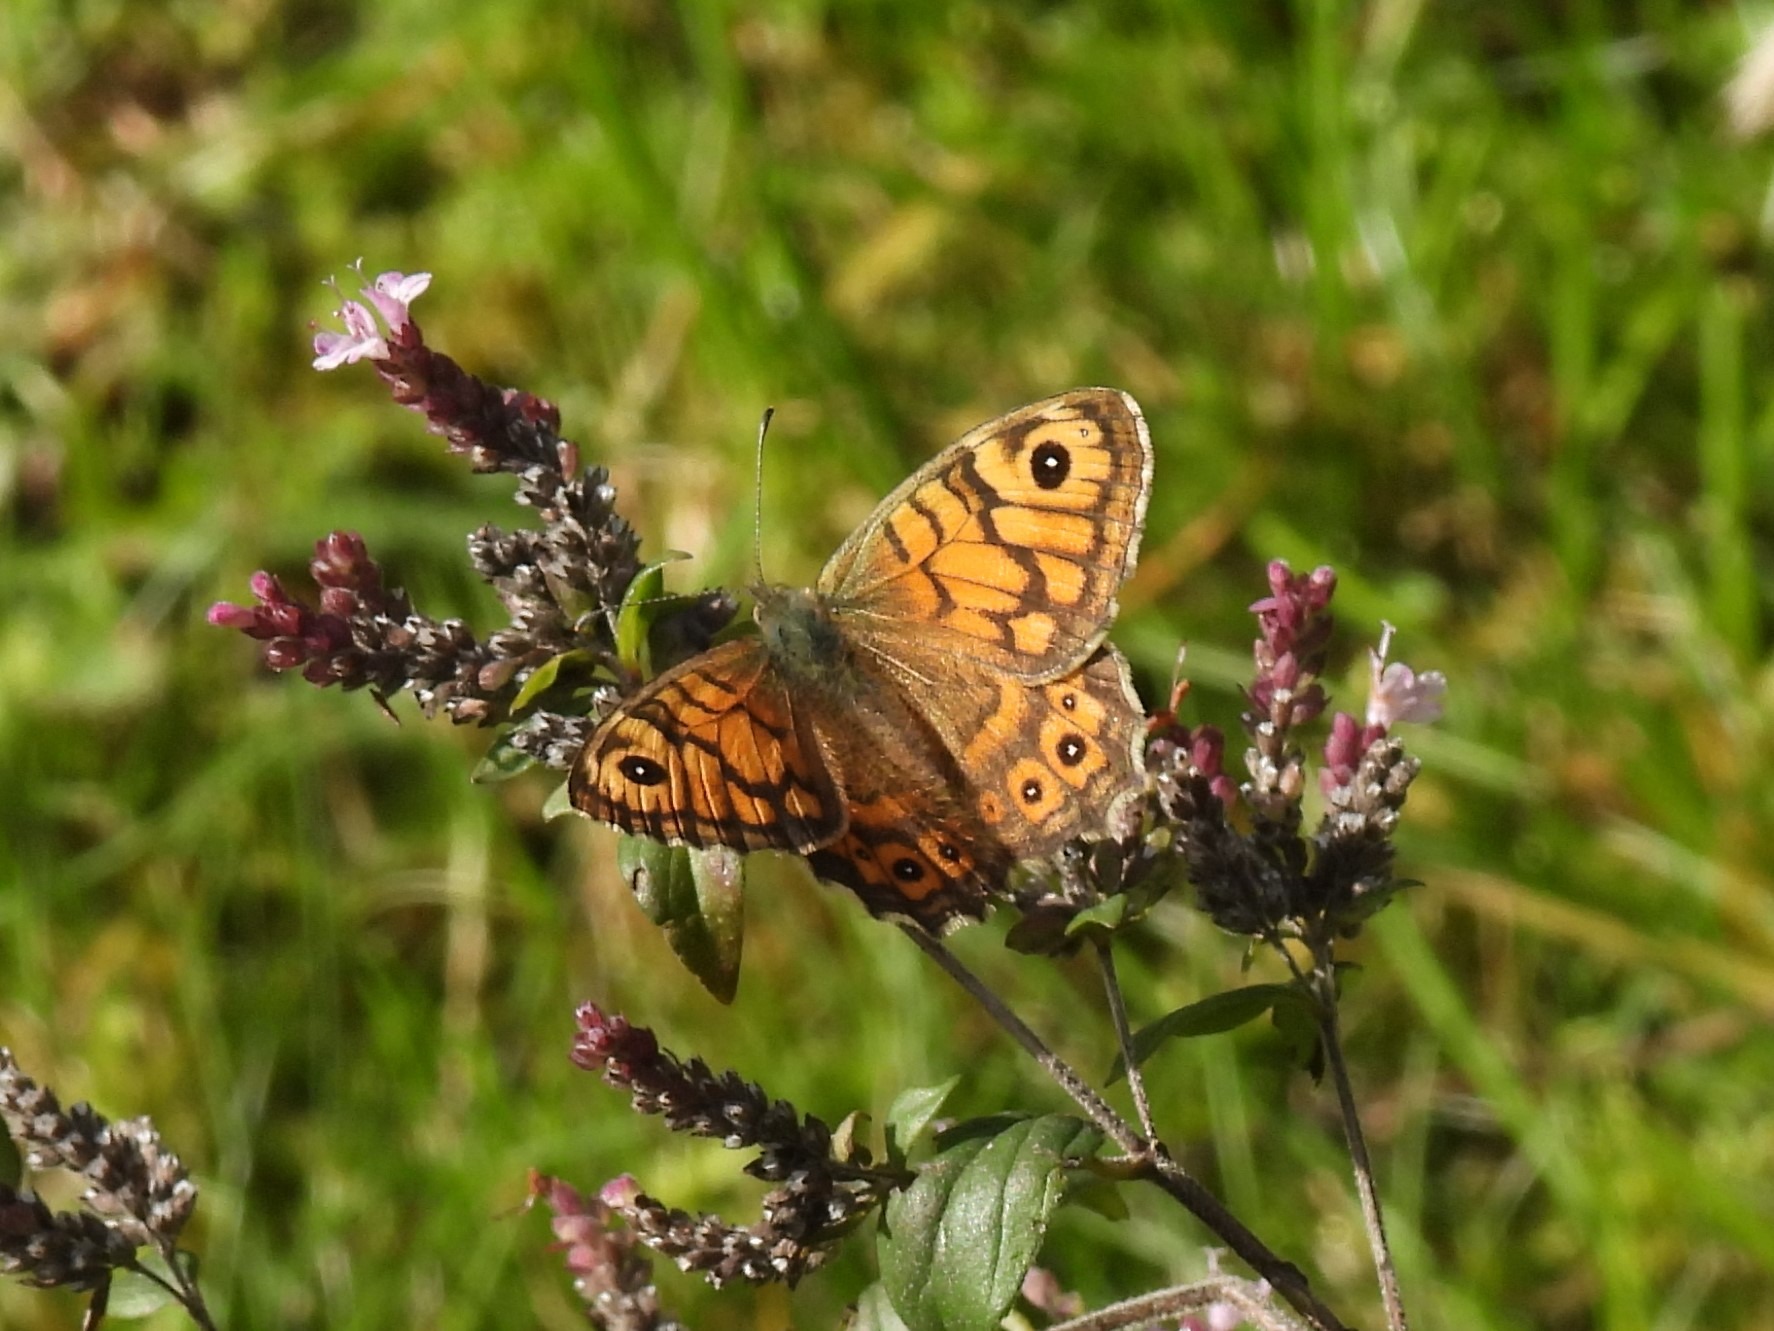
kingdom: Animalia
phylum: Arthropoda
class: Insecta
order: Lepidoptera
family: Nymphalidae
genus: Pararge
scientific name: Pararge Lasiommata megera
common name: Vejrandøje
